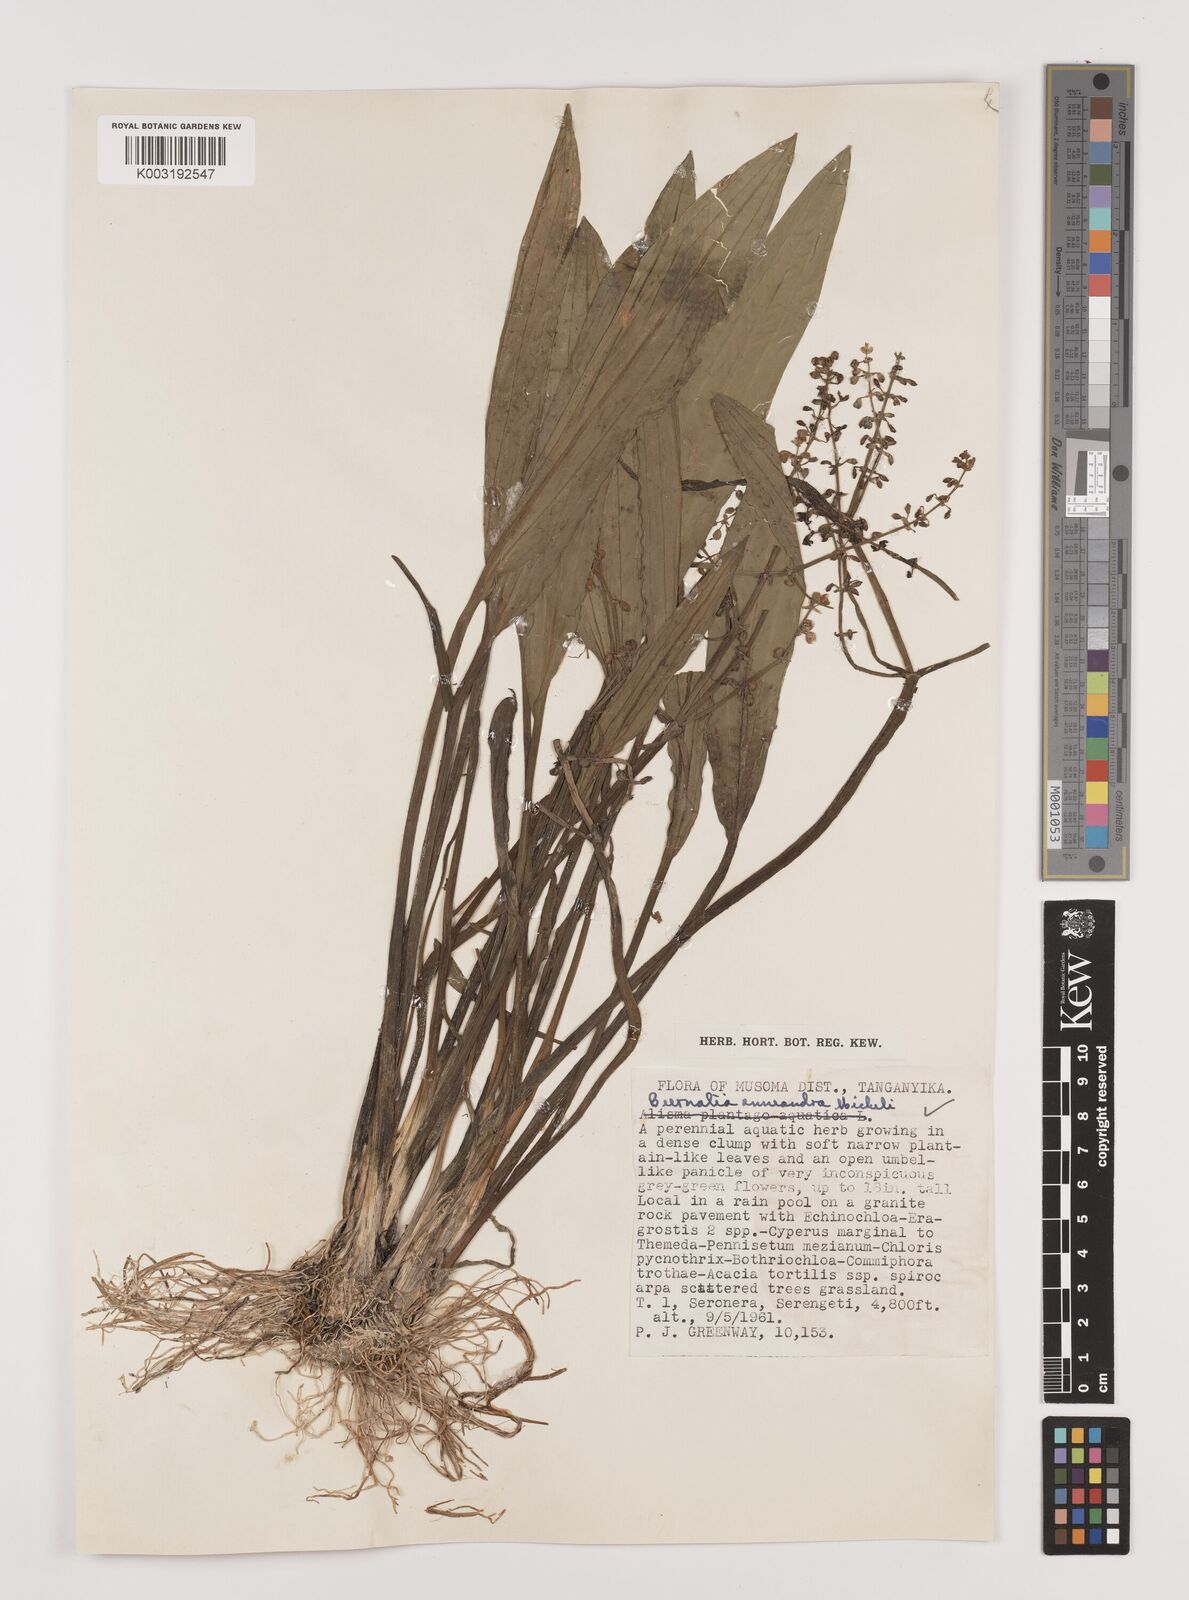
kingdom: Plantae
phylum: Tracheophyta
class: Liliopsida
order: Alismatales
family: Alismataceae
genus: Burnatia
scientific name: Burnatia enneandra
